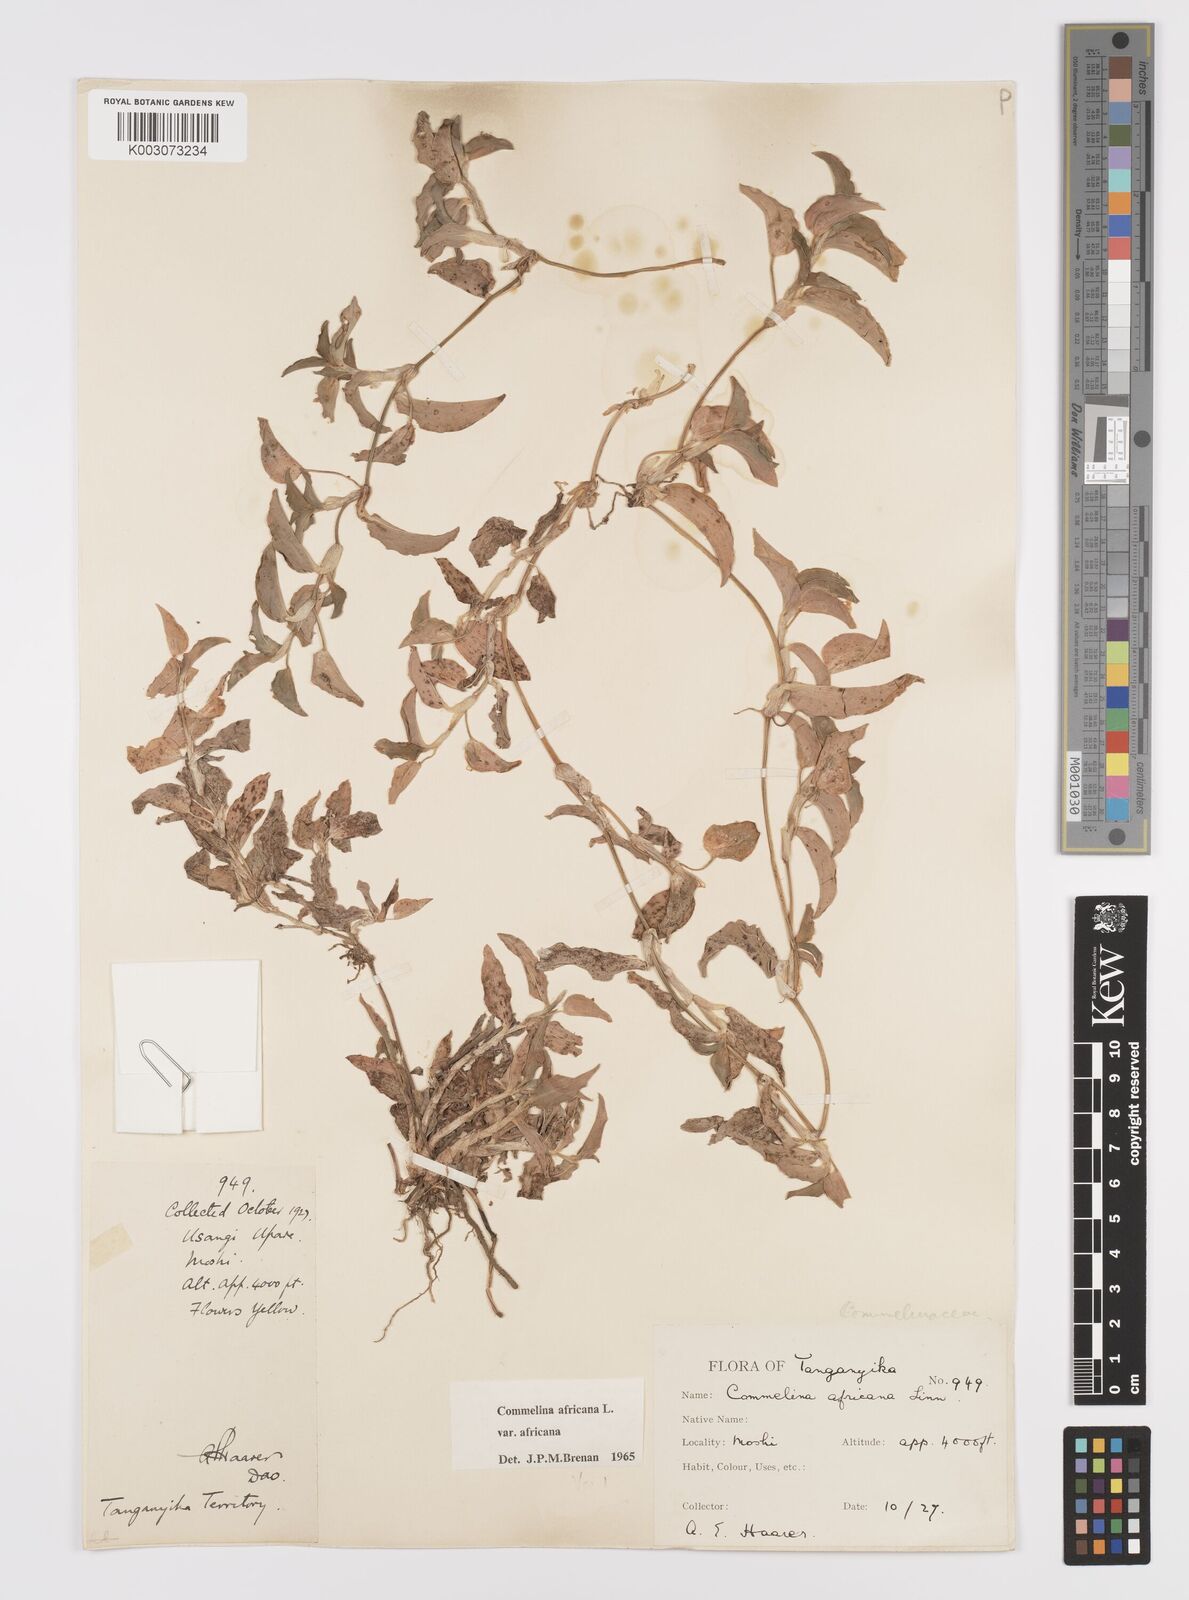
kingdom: Plantae
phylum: Tracheophyta
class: Liliopsida
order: Commelinales
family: Commelinaceae
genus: Commelina
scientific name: Commelina africana
